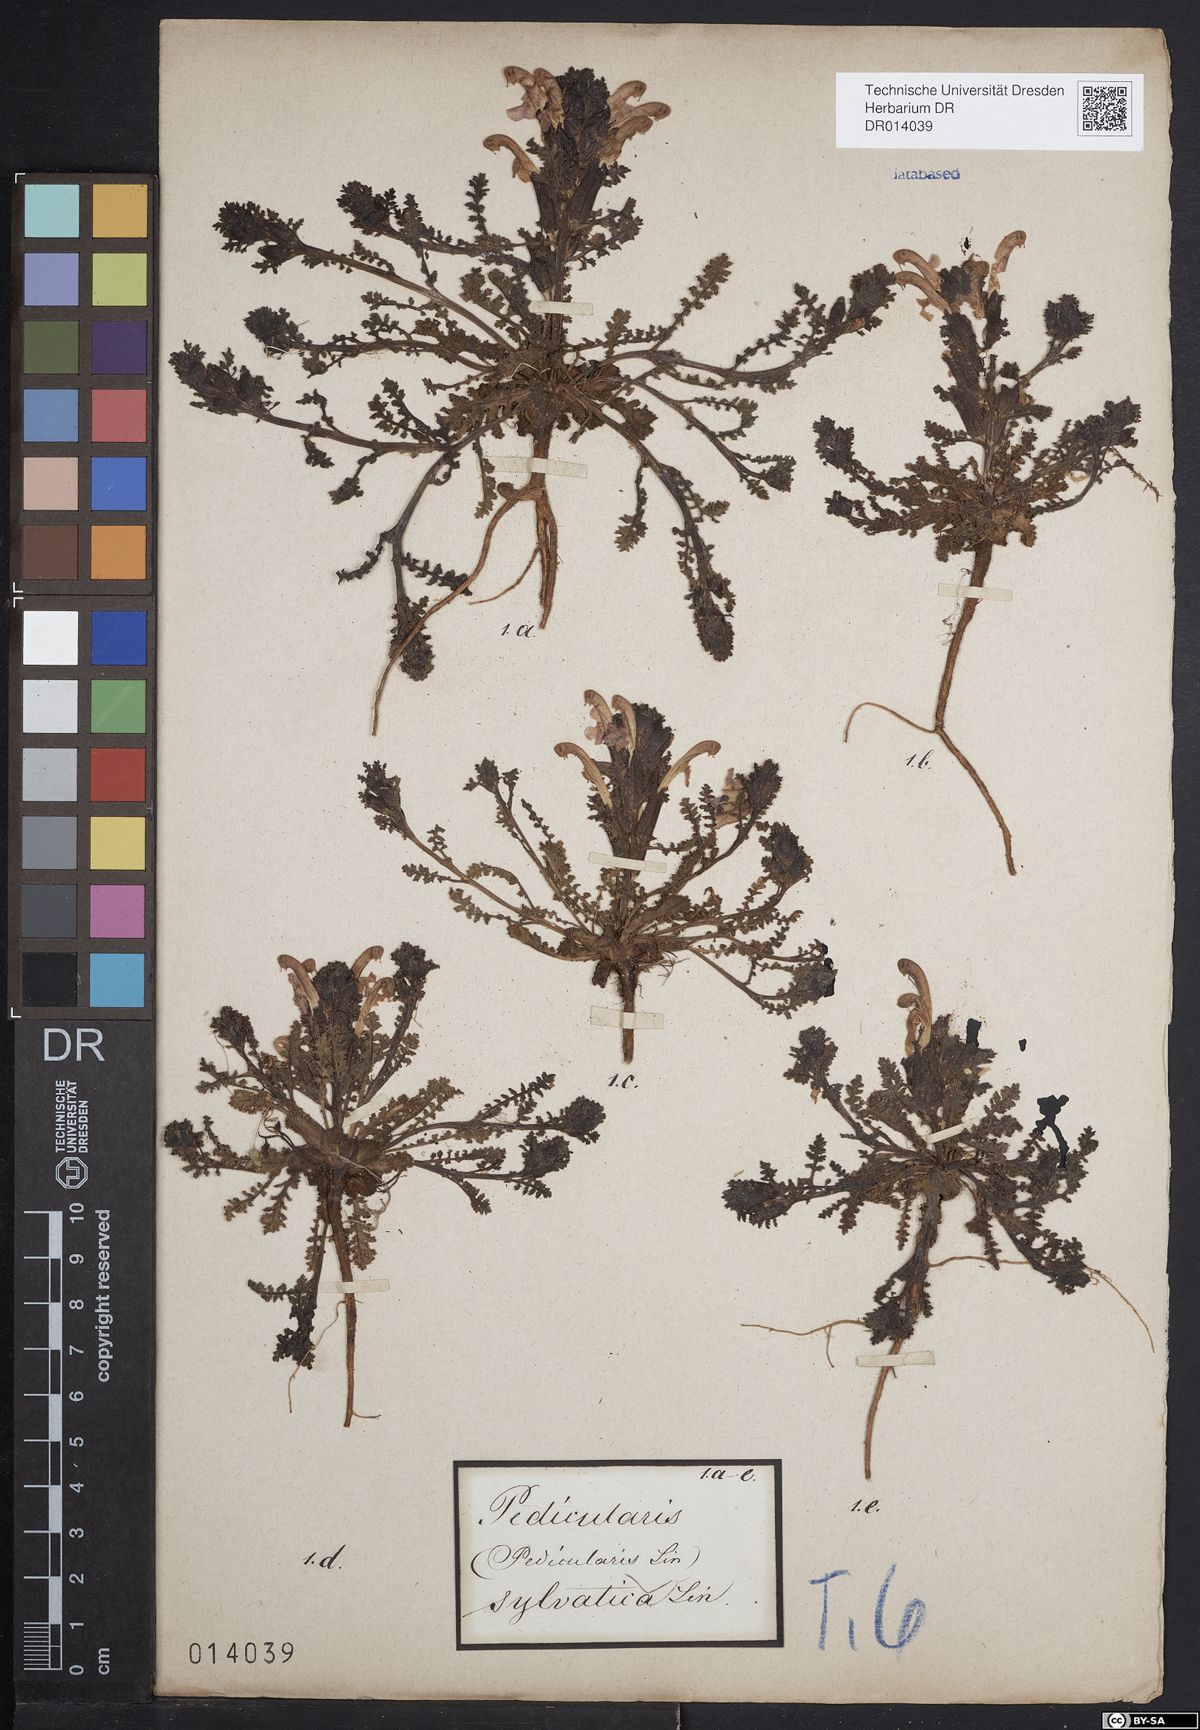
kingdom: Plantae
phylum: Tracheophyta
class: Magnoliopsida
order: Lamiales
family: Orobanchaceae
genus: Pedicularis
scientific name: Pedicularis sylvatica
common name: Lousewort
